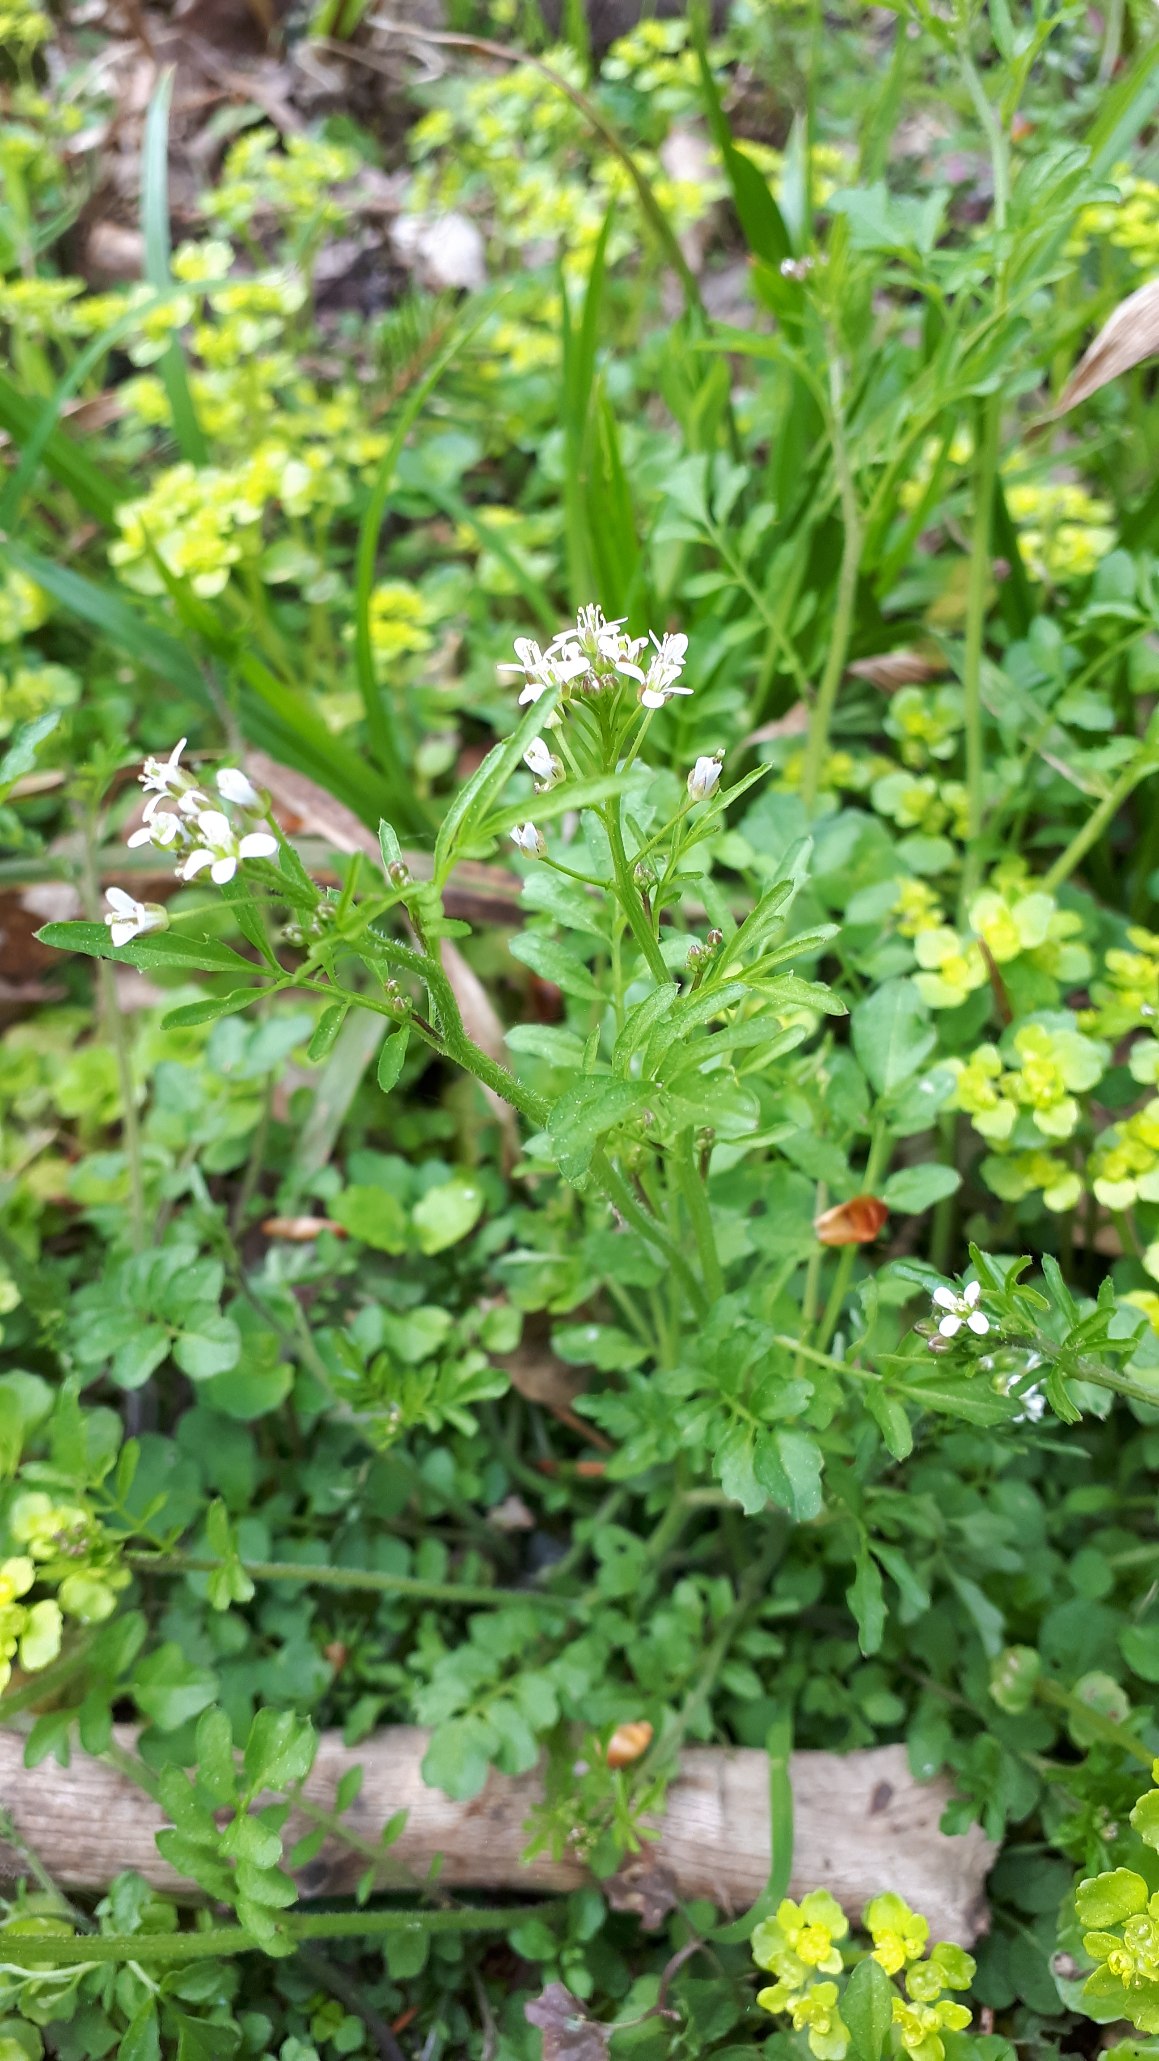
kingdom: Plantae
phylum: Tracheophyta
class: Magnoliopsida
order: Brassicales
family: Brassicaceae
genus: Cardamine
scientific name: Cardamine flexuosa
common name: Skov-springklap
